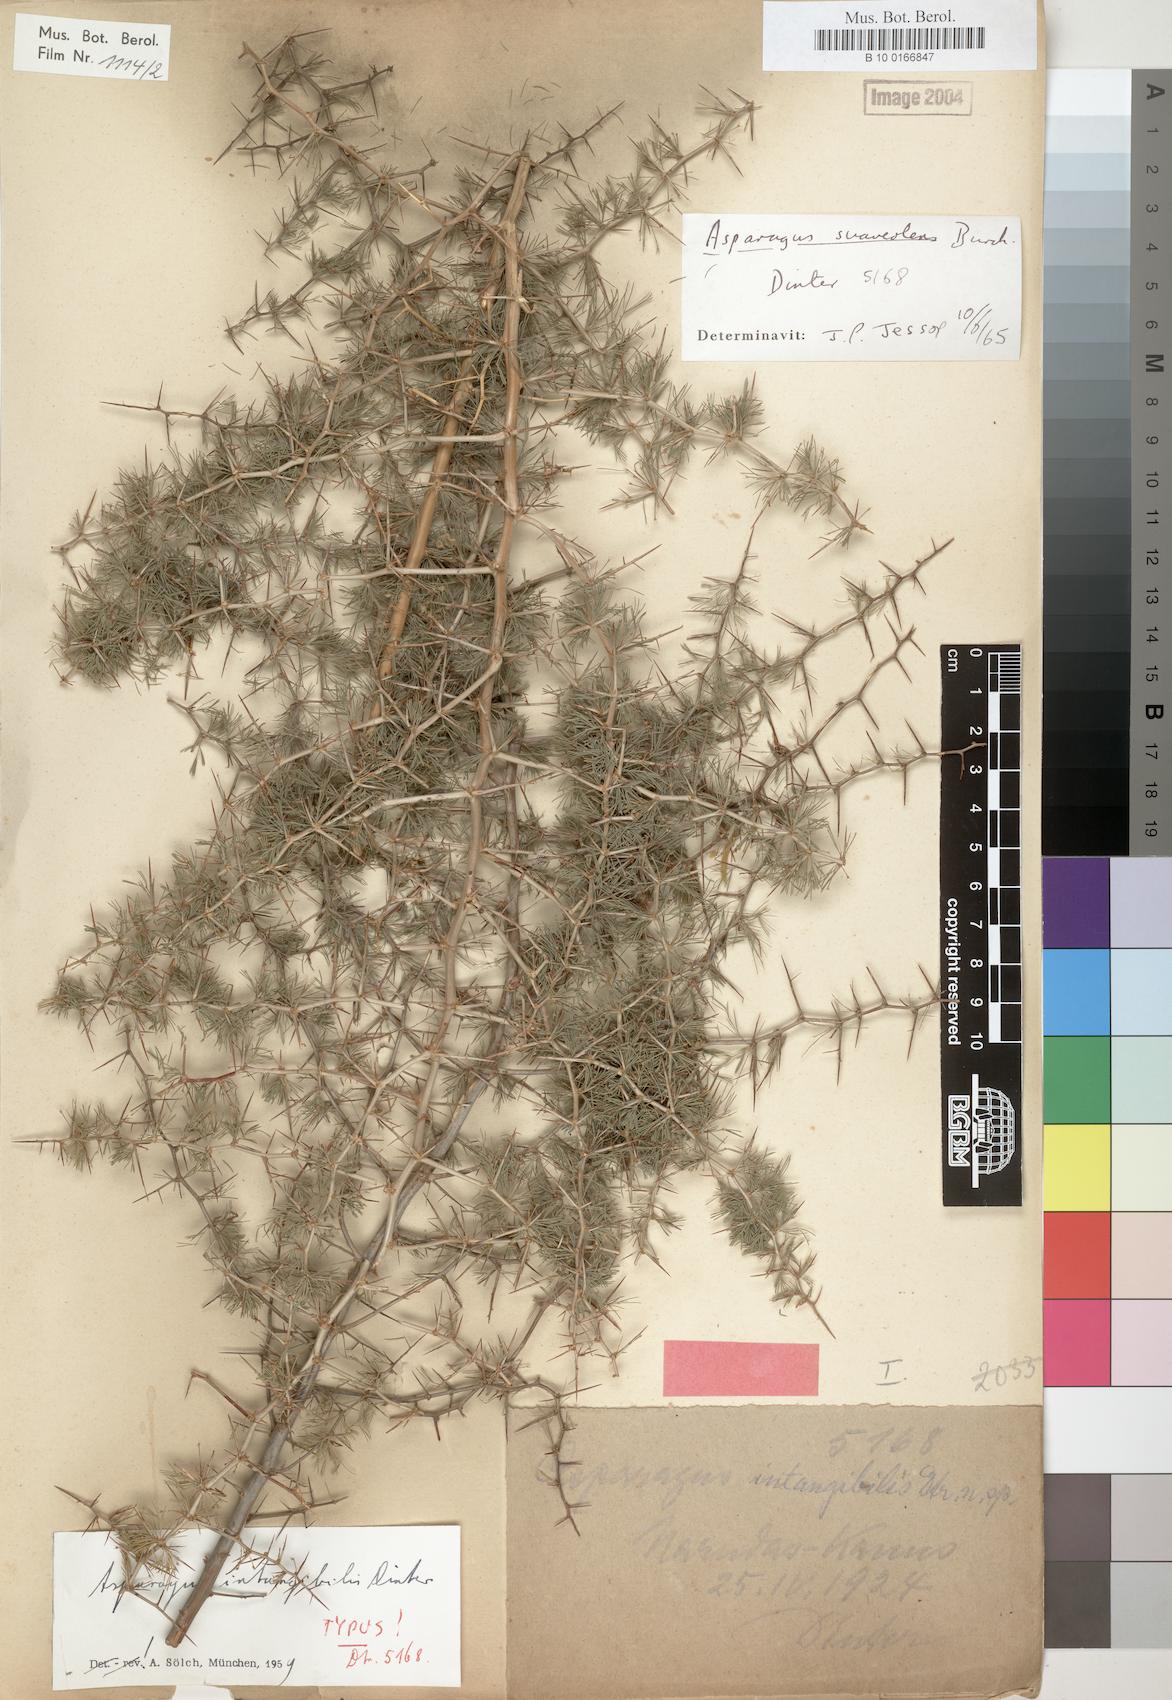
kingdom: Plantae
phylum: Tracheophyta
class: Liliopsida
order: Asparagales
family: Asparagaceae
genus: Asparagus
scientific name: Asparagus suaveolens
